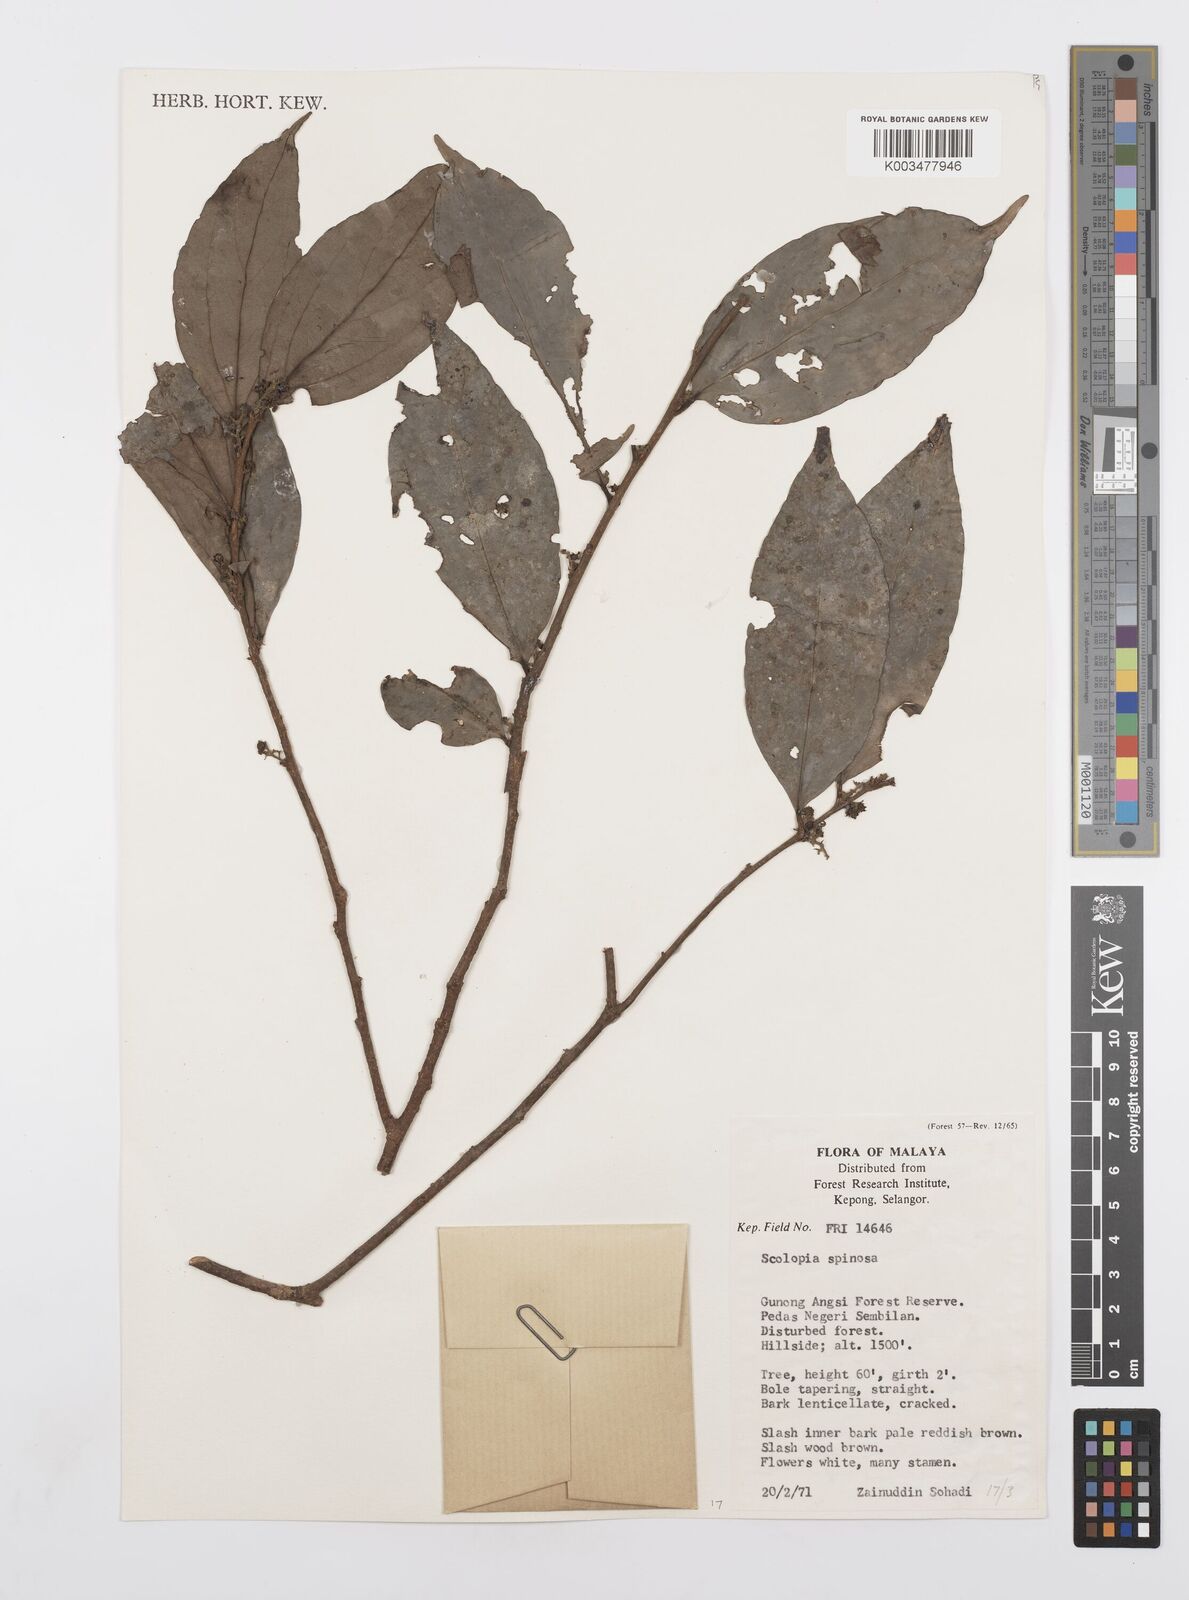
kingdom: Plantae
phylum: Tracheophyta
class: Magnoliopsida
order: Malpighiales
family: Salicaceae
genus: Scolopia
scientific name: Scolopia spinosa
